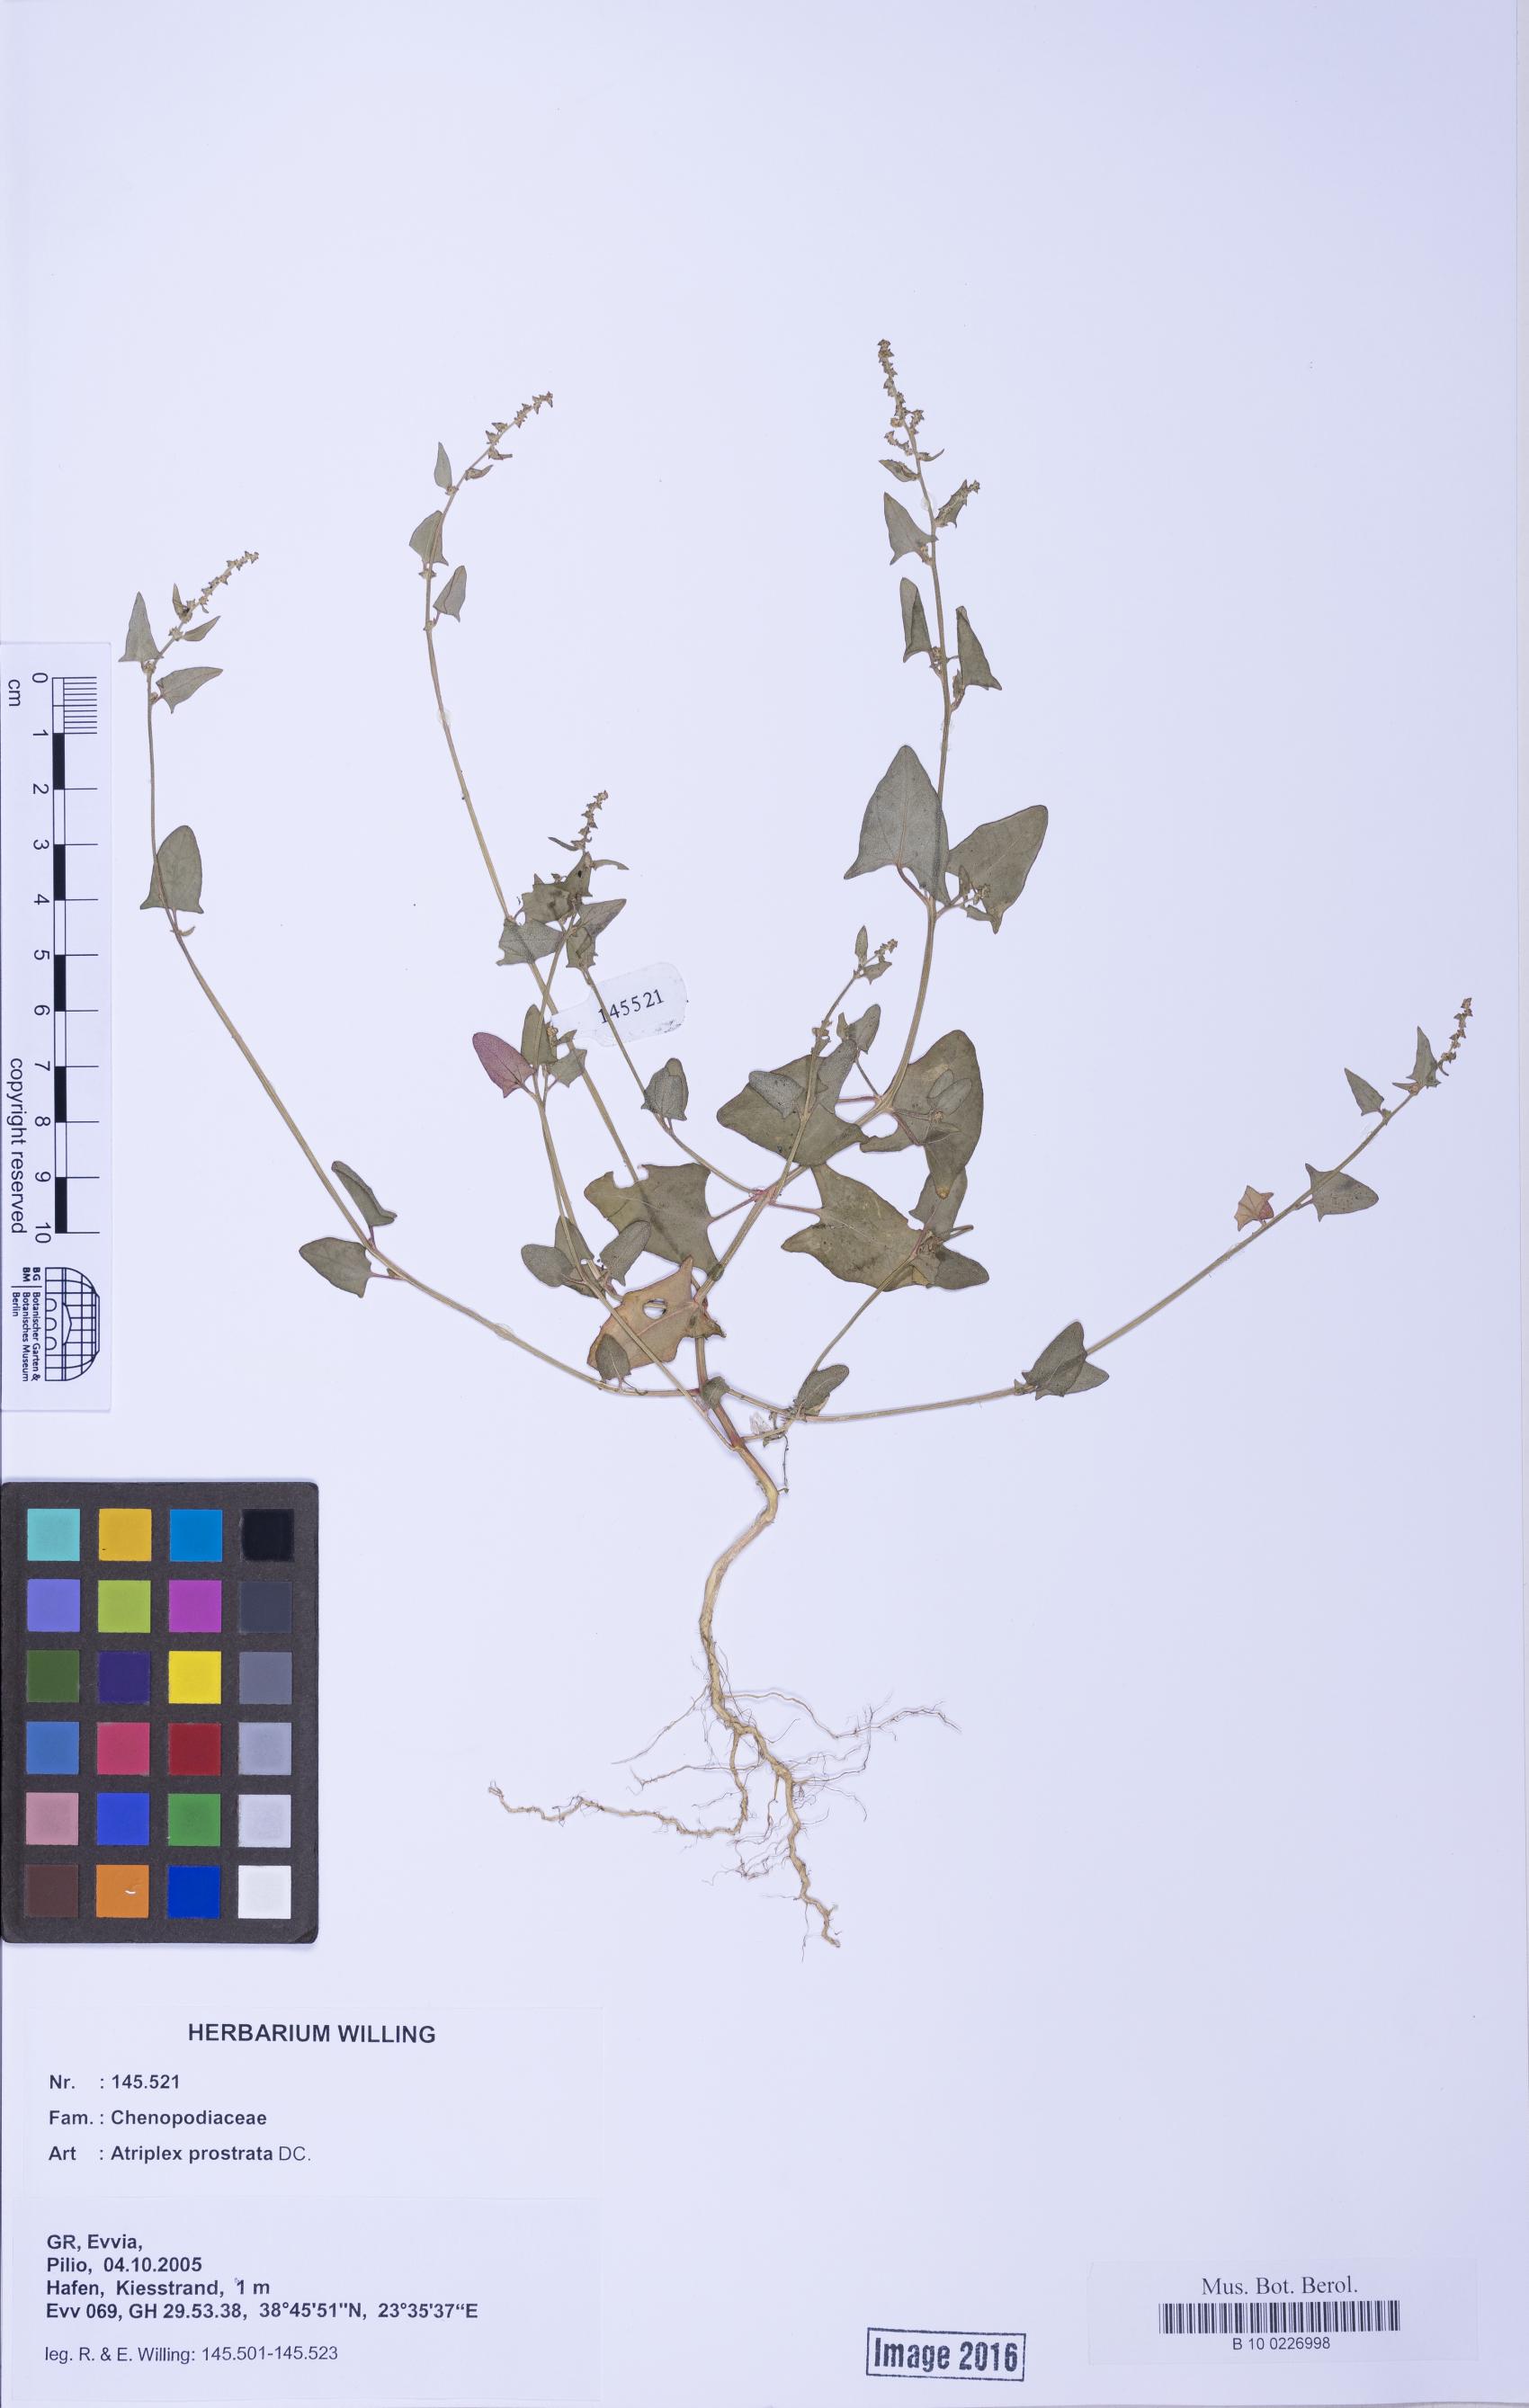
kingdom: Plantae
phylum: Tracheophyta
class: Magnoliopsida
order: Caryophyllales
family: Amaranthaceae
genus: Atriplex
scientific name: Atriplex prostrata
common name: Spear-leaved orache
